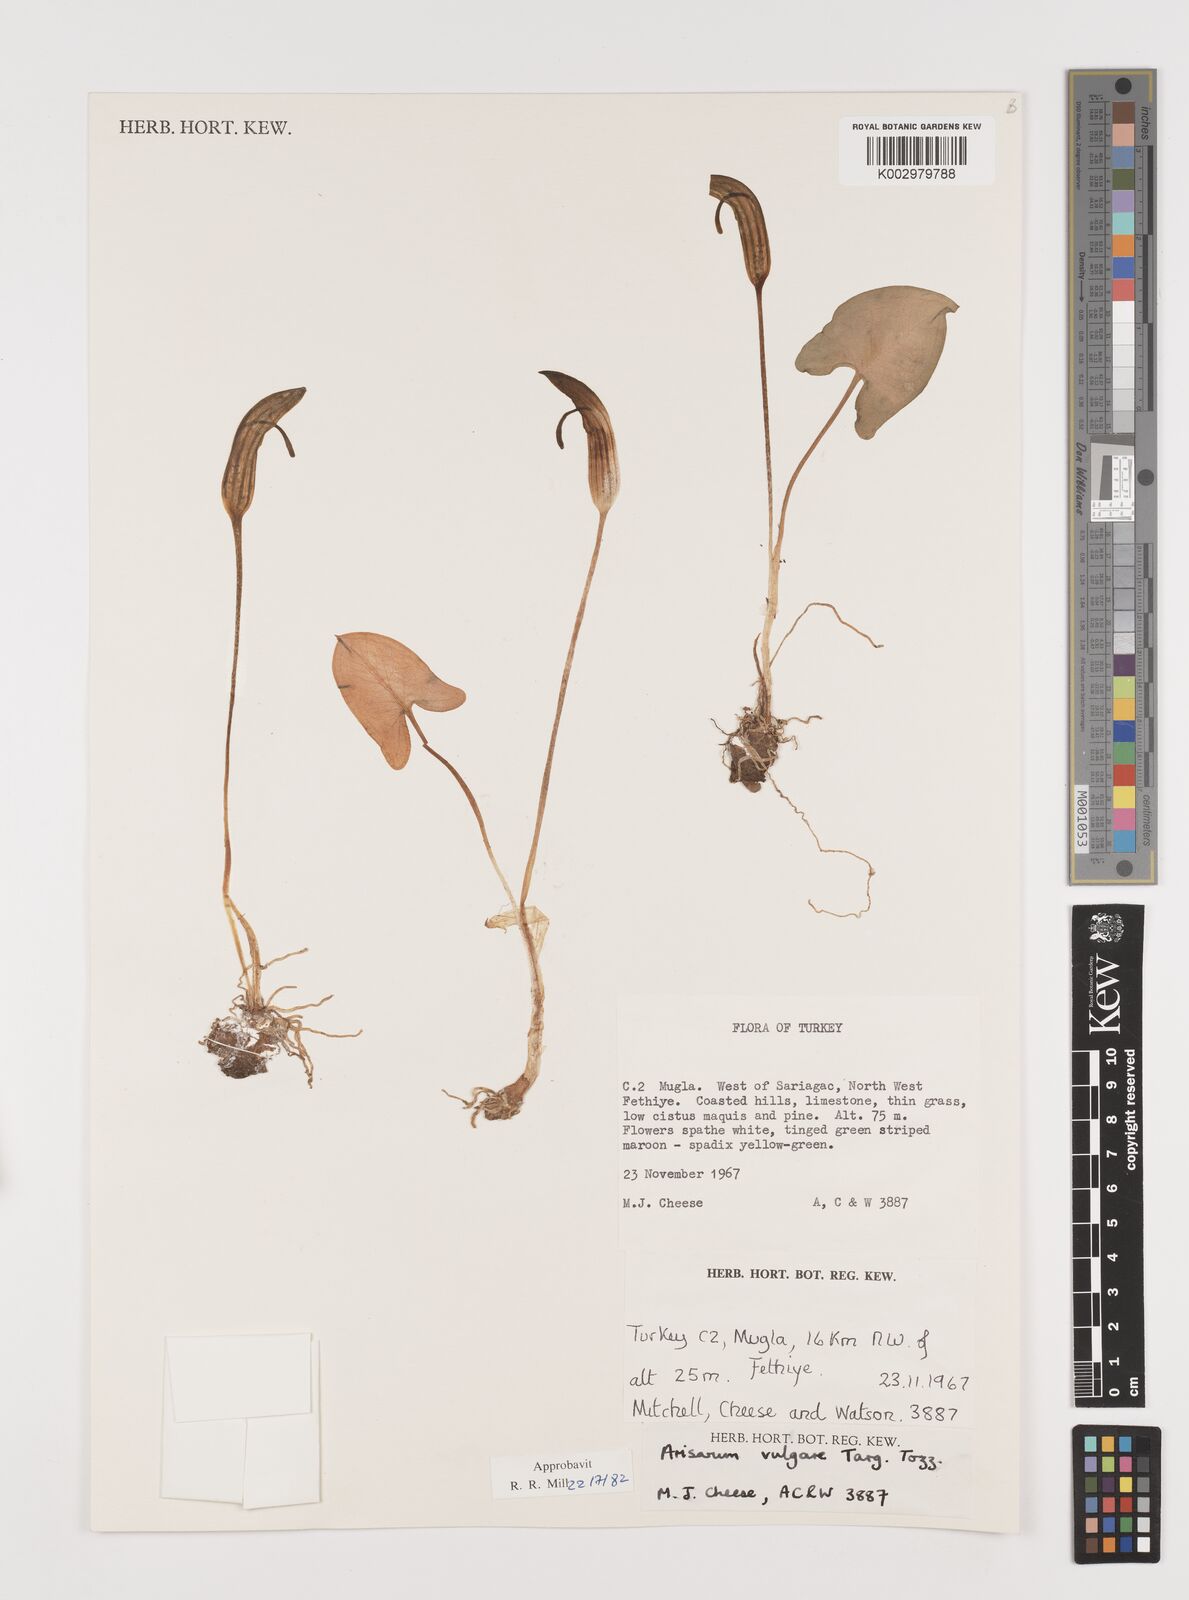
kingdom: Plantae
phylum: Tracheophyta
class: Liliopsida
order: Alismatales
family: Araceae
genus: Arisarum
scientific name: Arisarum vulgare
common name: Common arisarum
